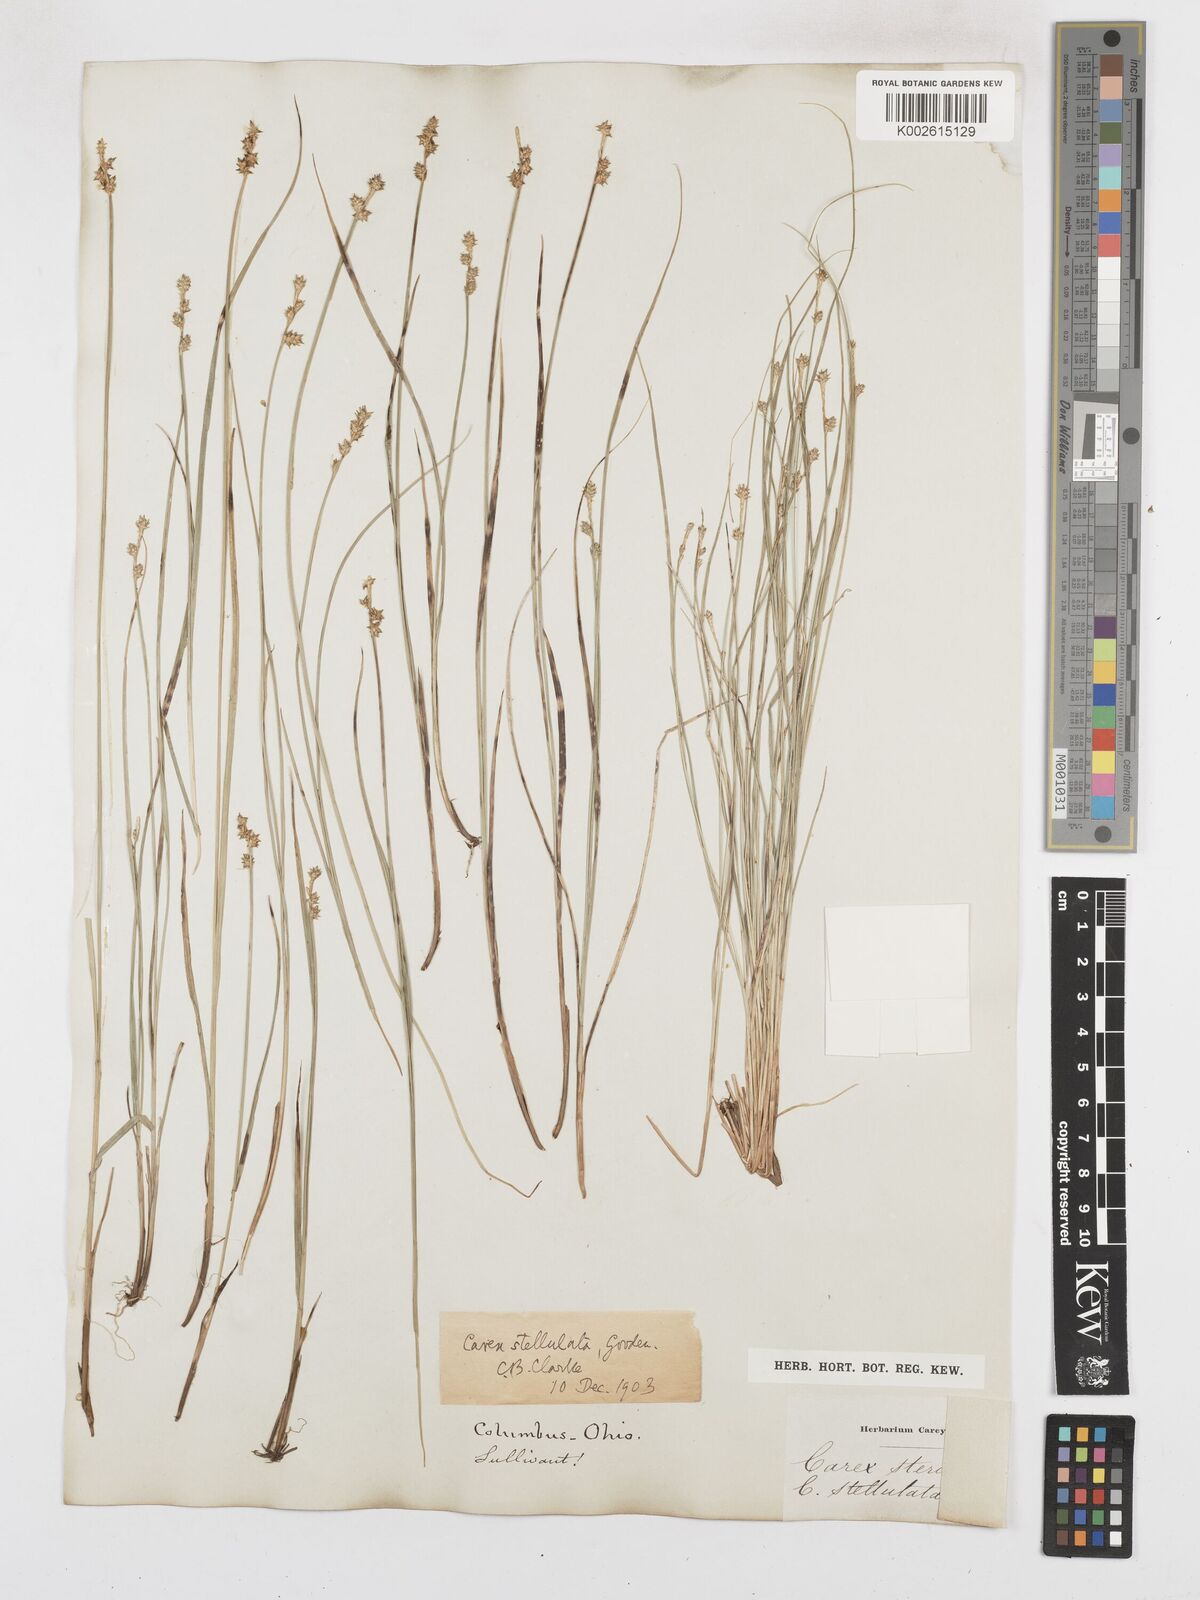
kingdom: Plantae
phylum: Tracheophyta
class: Liliopsida
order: Poales
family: Cyperaceae
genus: Carex
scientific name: Carex echinata
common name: Star sedge
